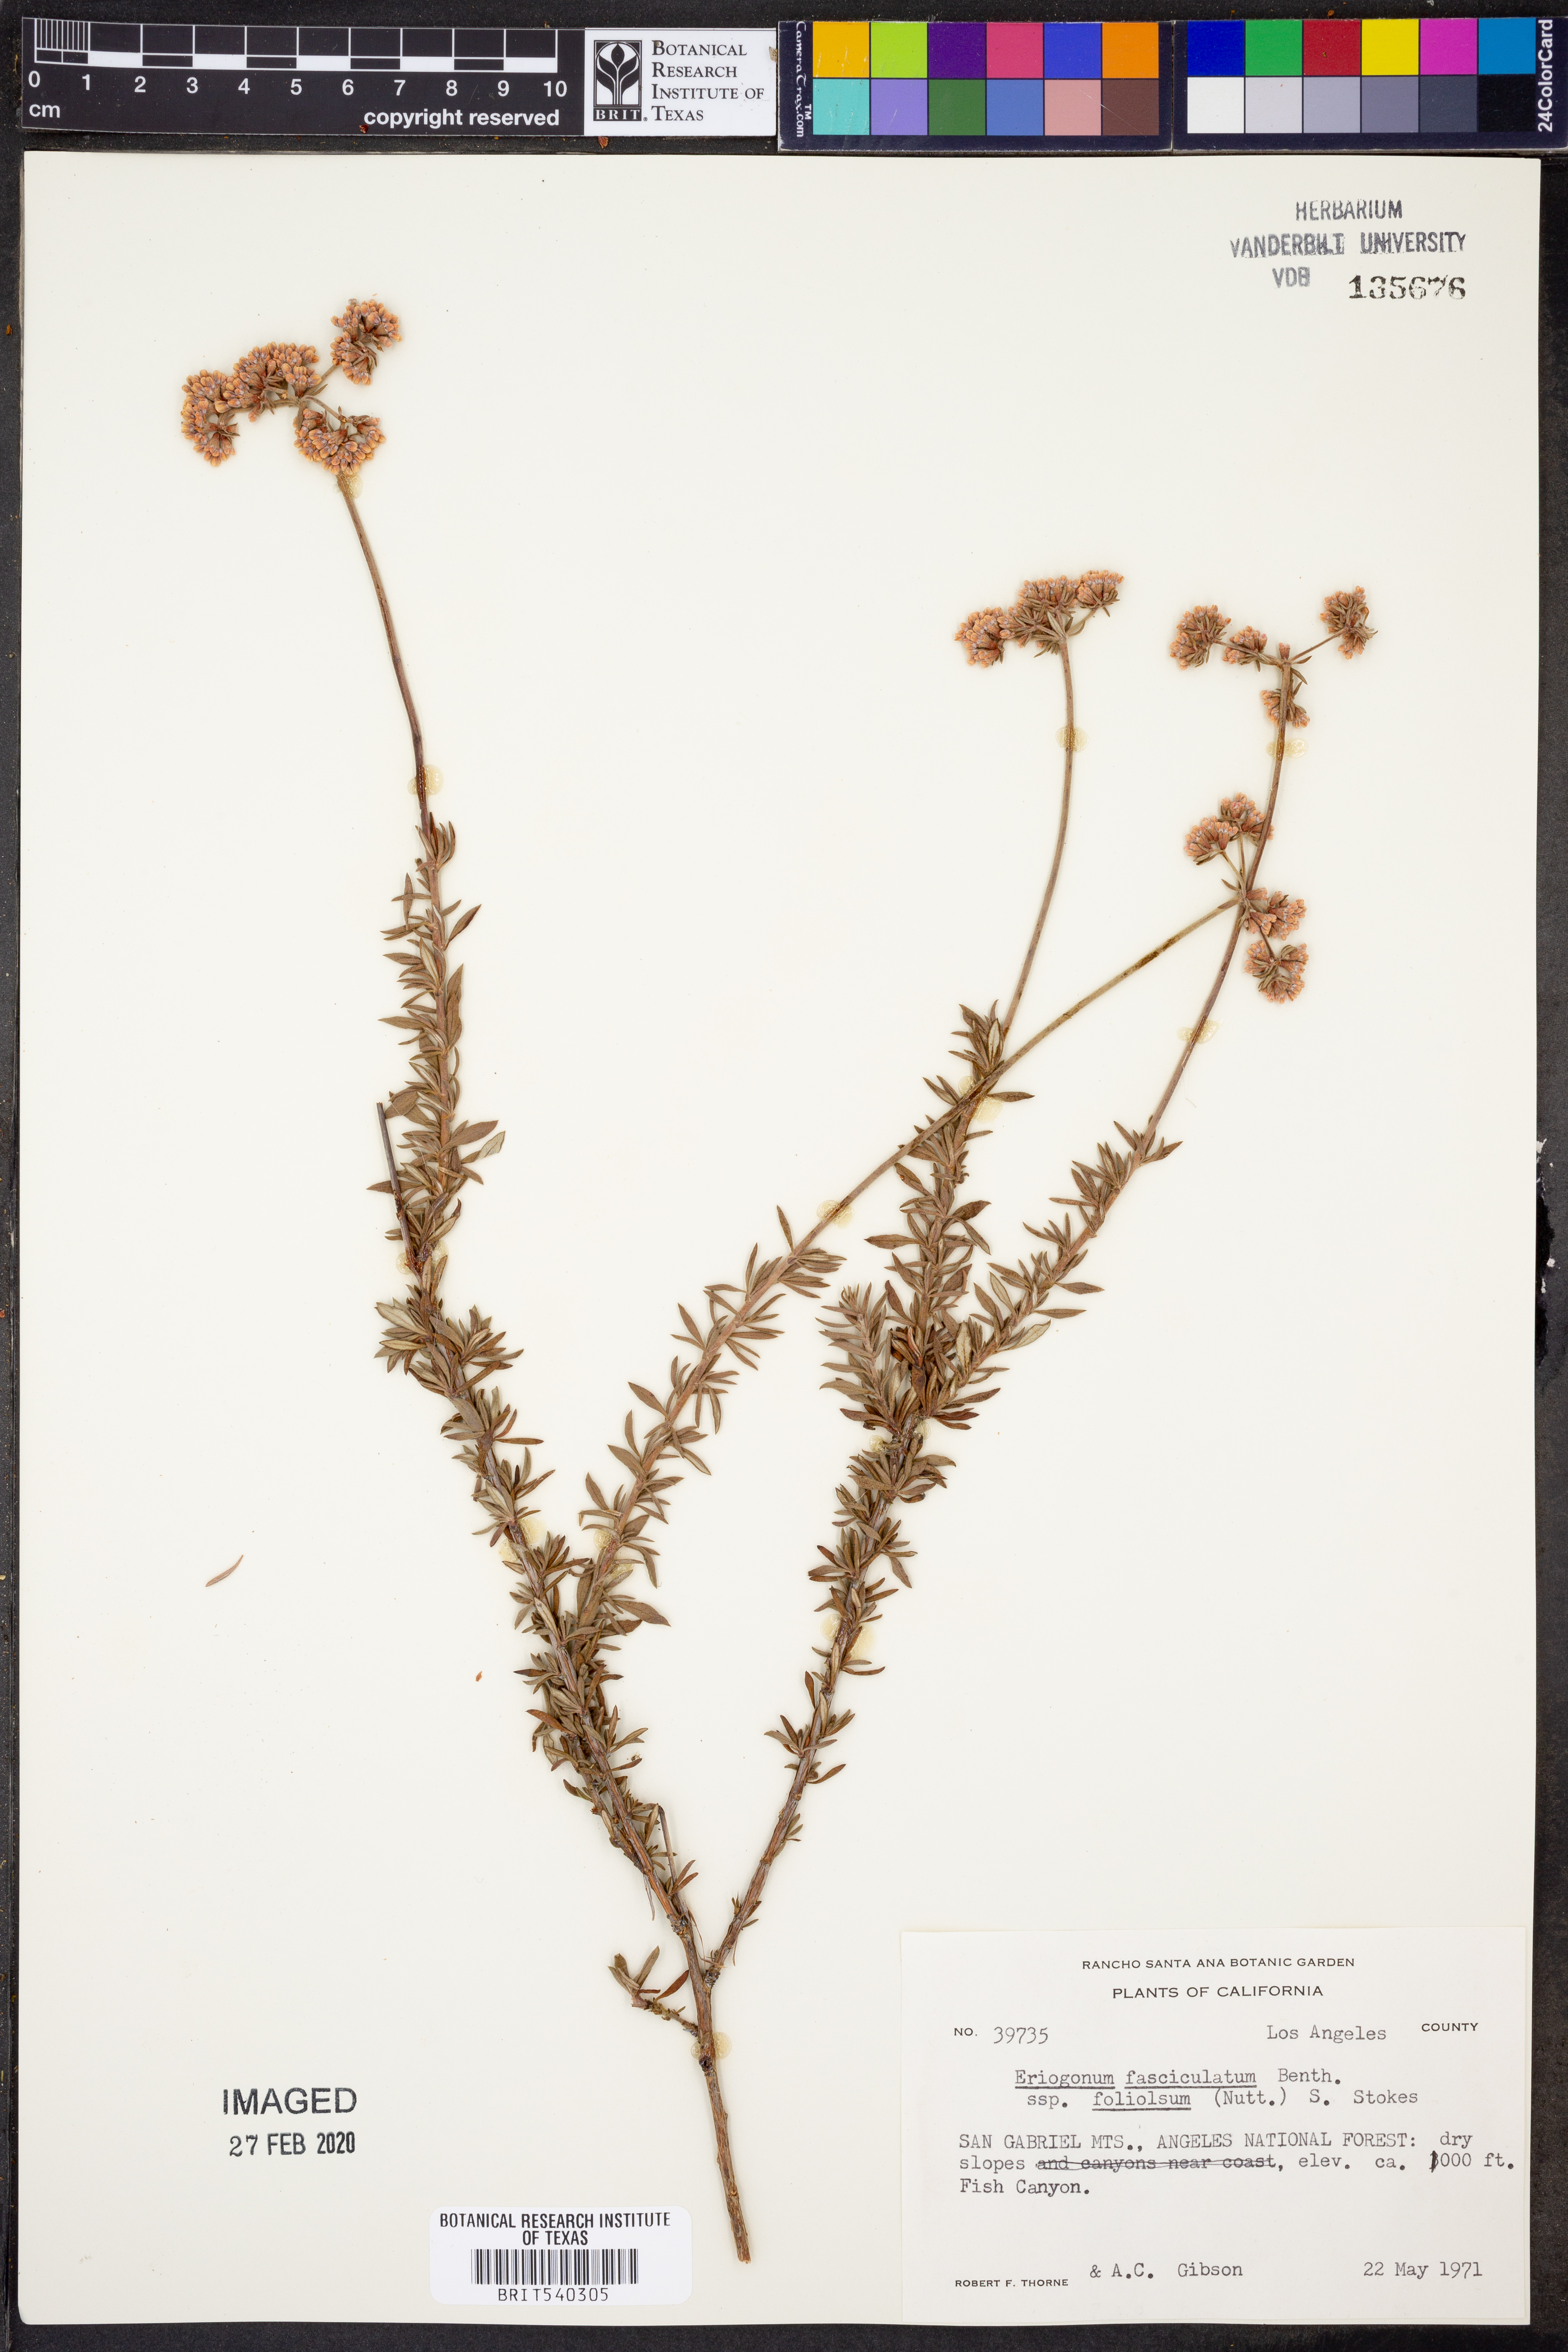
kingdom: Plantae
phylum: Tracheophyta
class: Magnoliopsida
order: Caryophyllales
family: Polygonaceae
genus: Eriogonum
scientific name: Eriogonum fasciculatum
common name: California wild buckwheat
